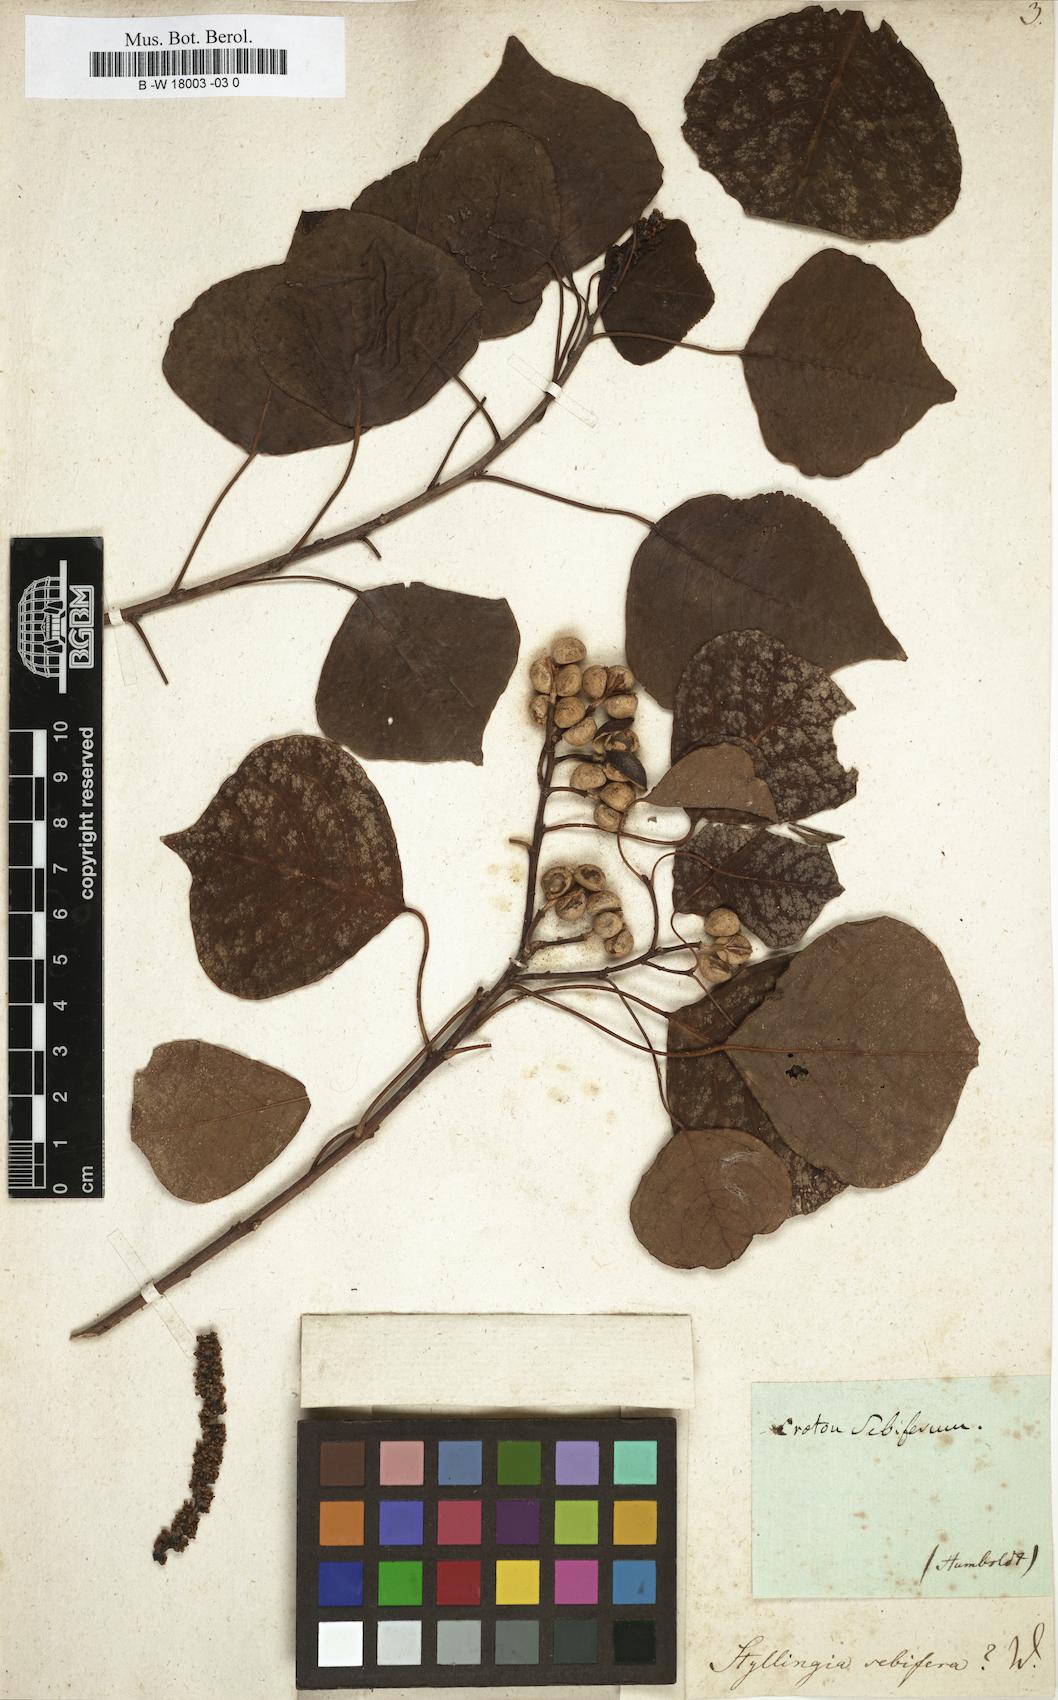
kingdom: Plantae
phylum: Tracheophyta
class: Magnoliopsida
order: Malpighiales
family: Euphorbiaceae
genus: Triadica
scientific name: Triadica sebifera
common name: Chinese tallow
